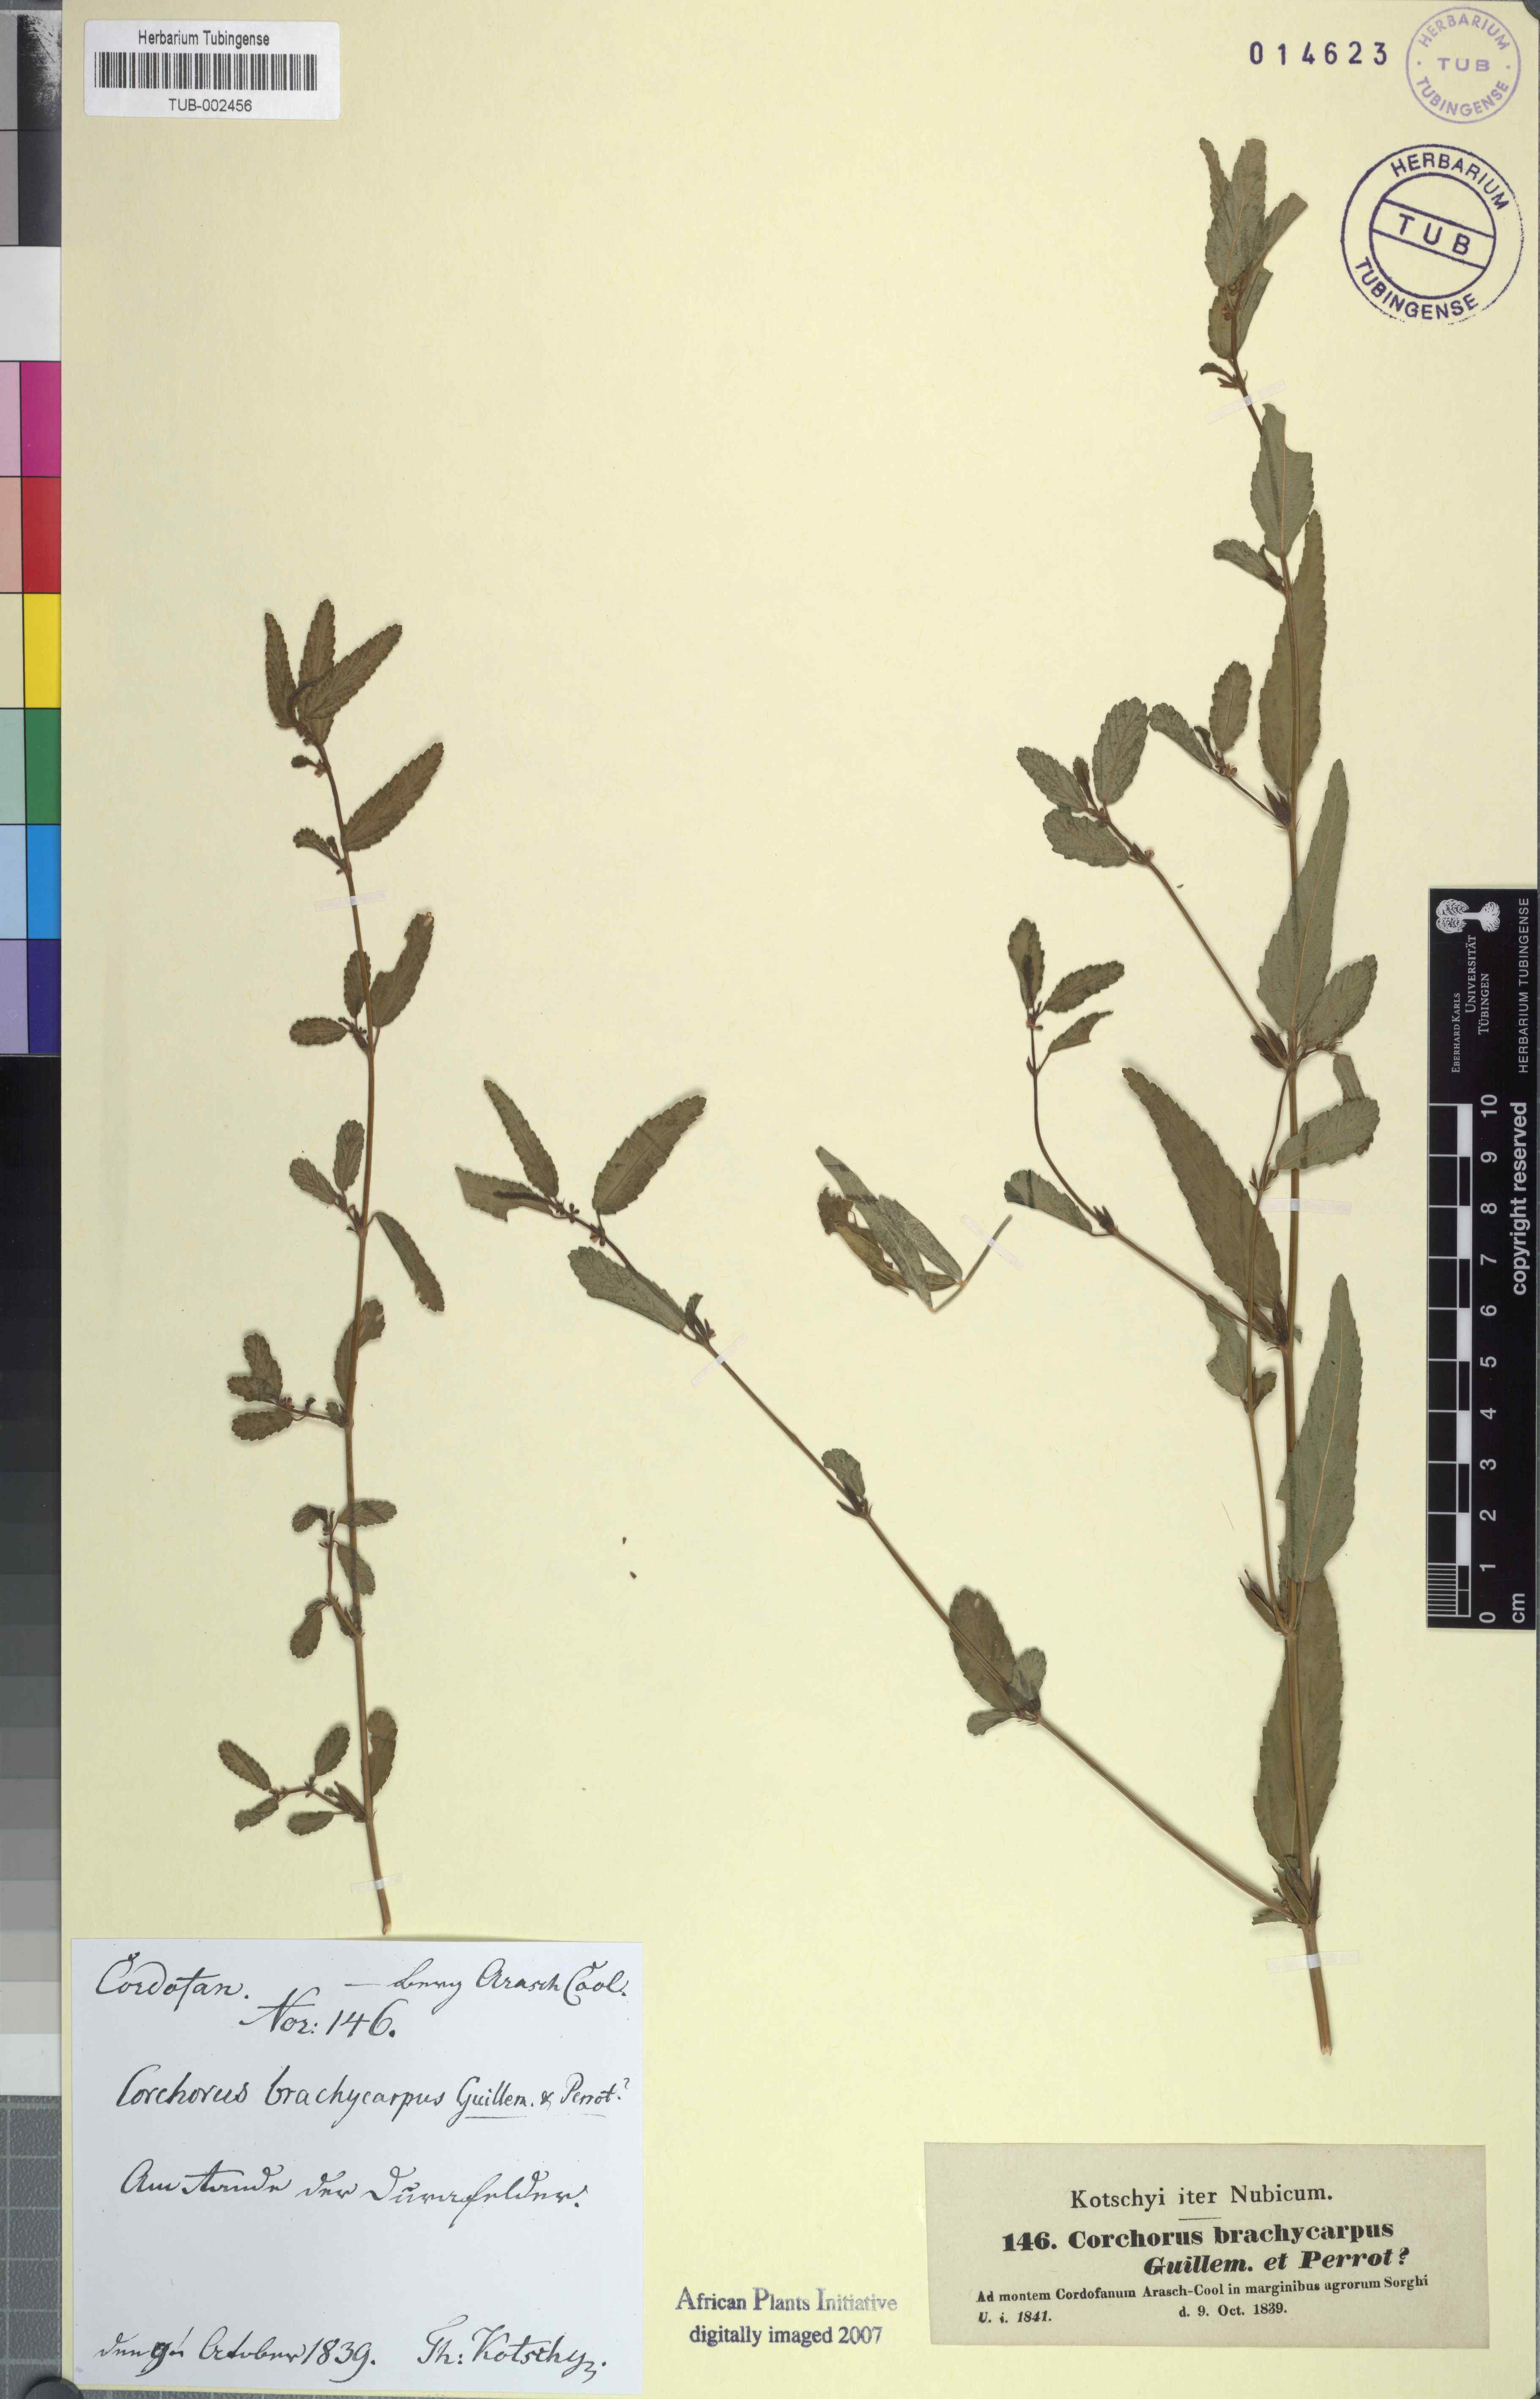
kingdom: Plantae
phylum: Tracheophyta
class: Magnoliopsida
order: Malvales
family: Malvaceae
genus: Corchorus
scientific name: Corchorus fascicularis
